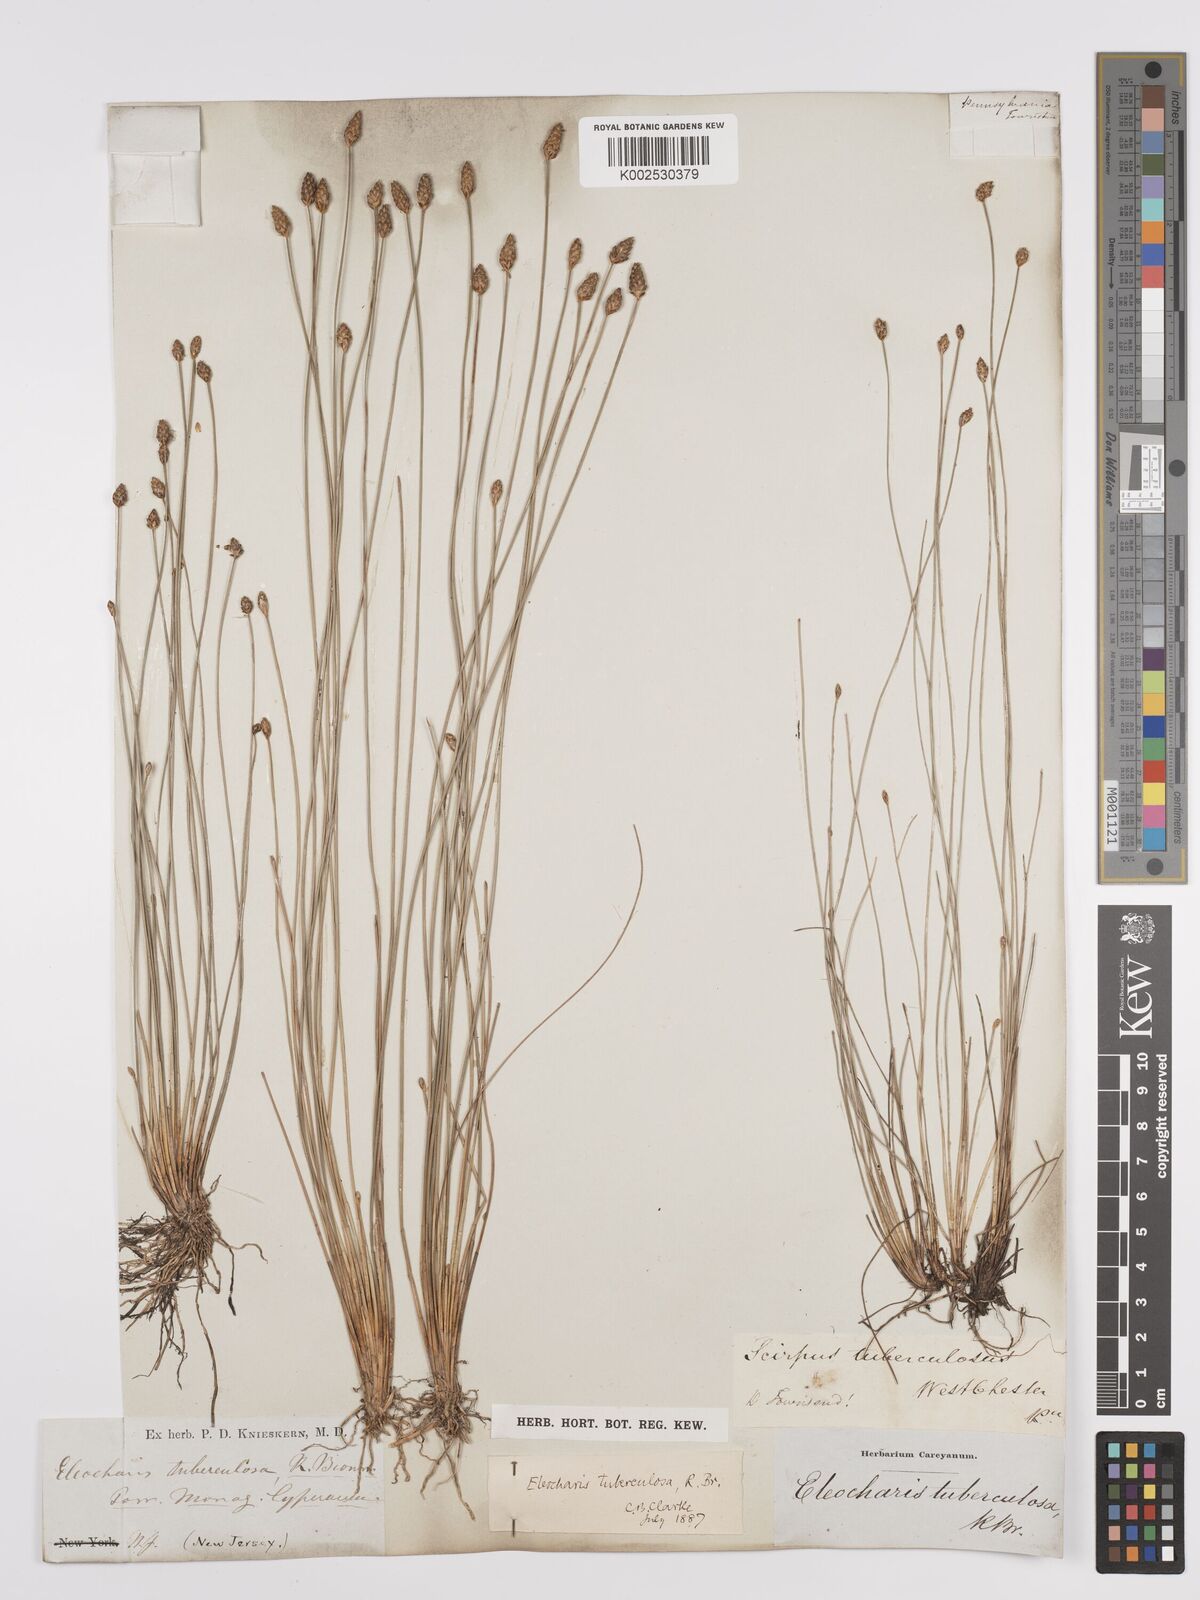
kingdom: Plantae
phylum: Tracheophyta
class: Liliopsida
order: Poales
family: Cyperaceae
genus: Eleocharis
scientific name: Eleocharis tuberculosa
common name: Cone-cup spikerush
